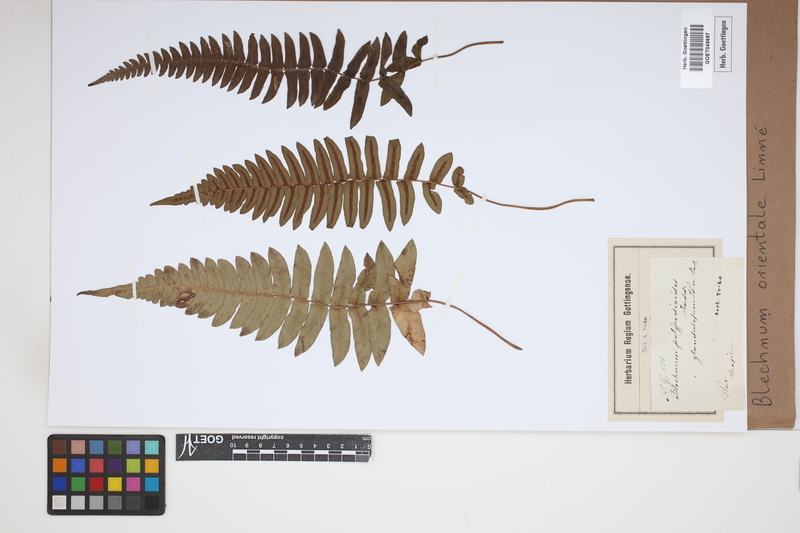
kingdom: Plantae
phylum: Tracheophyta
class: Polypodiopsida
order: Polypodiales
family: Blechnaceae
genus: Blechnopsis
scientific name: Blechnopsis orientalis
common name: Oriental blechnum
